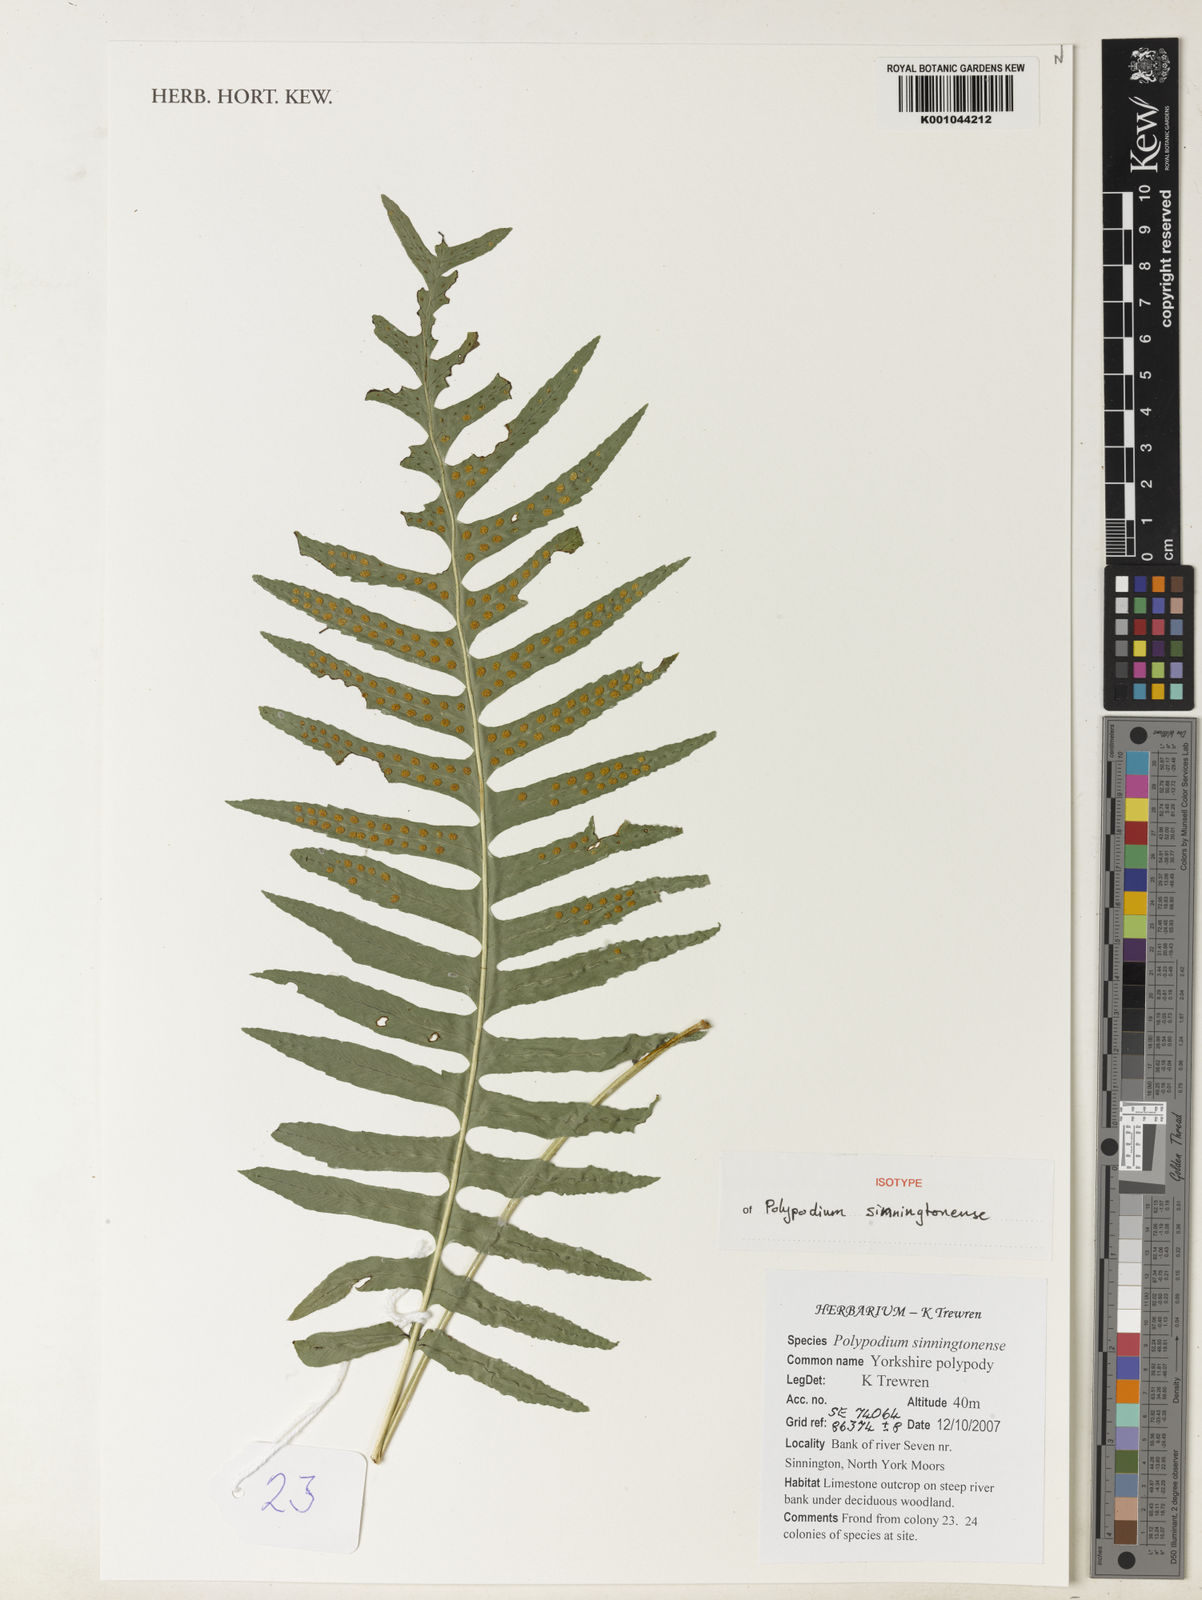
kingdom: Plantae
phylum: Tracheophyta
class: Polypodiopsida
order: Polypodiales
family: Polypodiaceae
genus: Polypodium
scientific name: Polypodium
